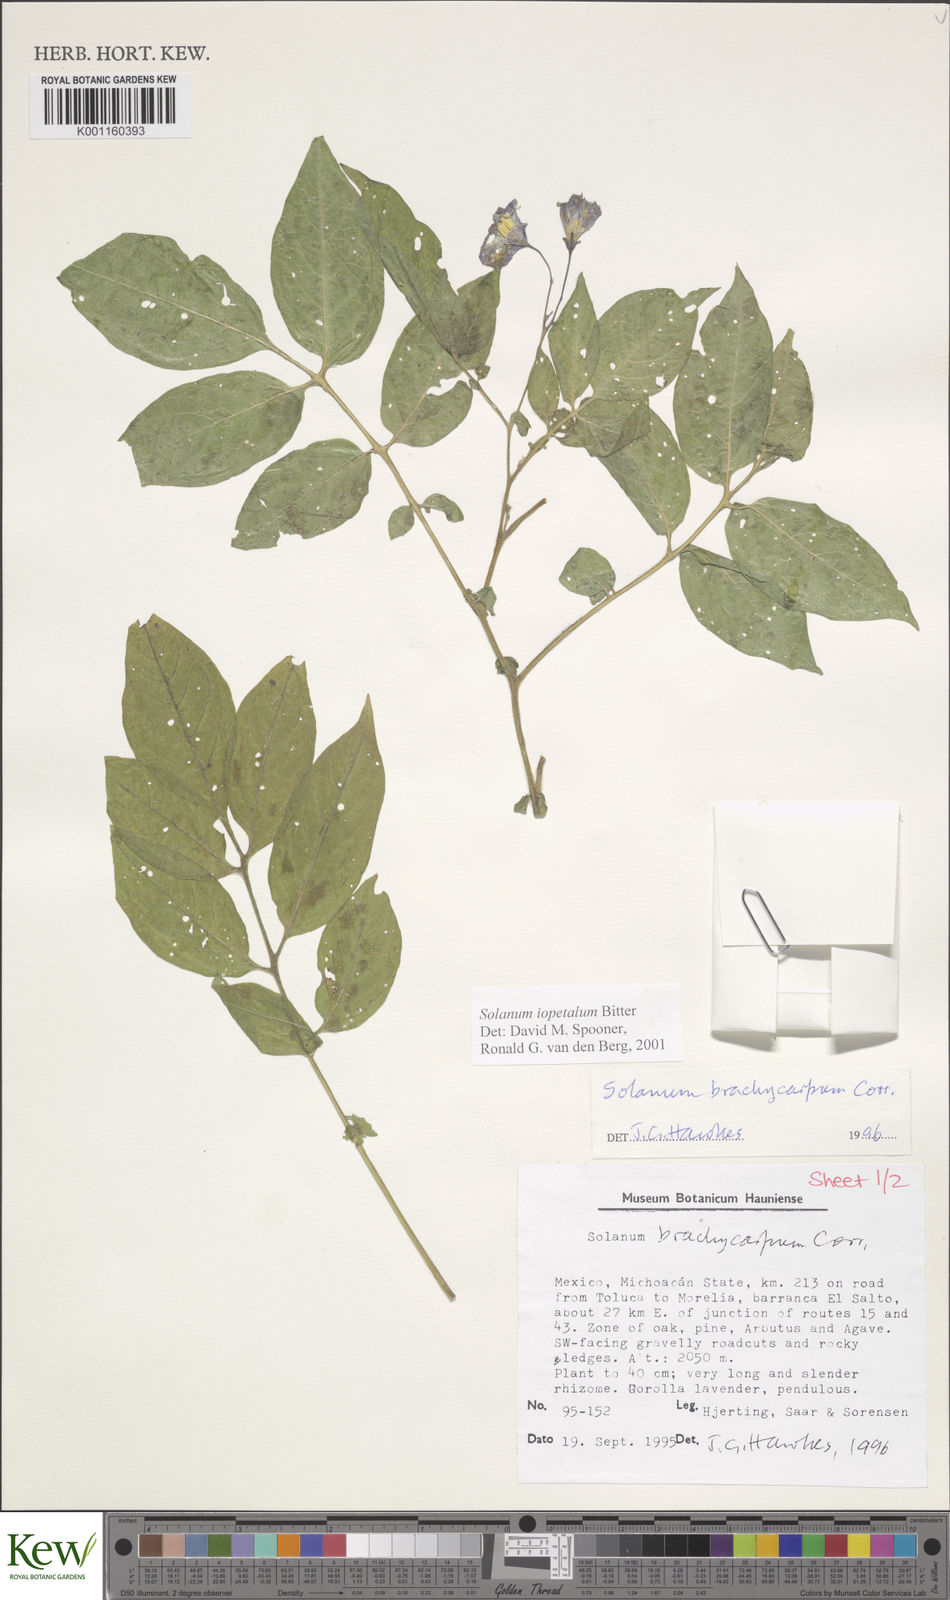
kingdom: Plantae
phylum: Tracheophyta
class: Magnoliopsida
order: Solanales
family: Solanaceae
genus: Solanum
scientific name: Solanum iopetalum
